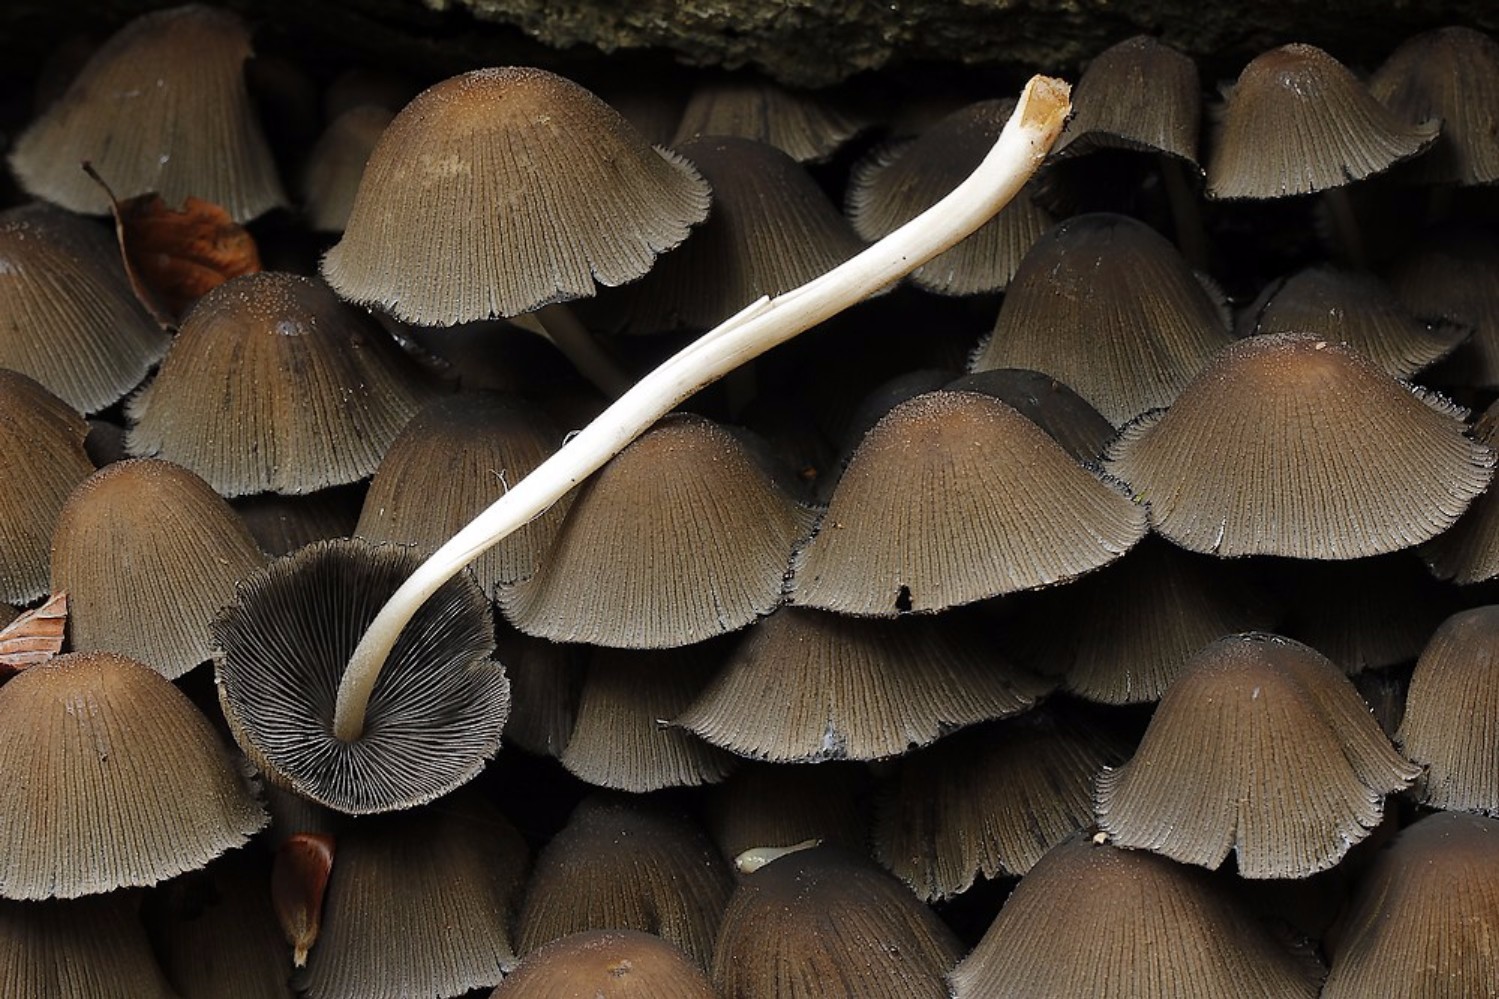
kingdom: Fungi
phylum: Basidiomycota
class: Agaricomycetes
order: Agaricales
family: Psathyrellaceae
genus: Coprinellus
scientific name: Coprinellus micaceus
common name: glimmer-blækhat
